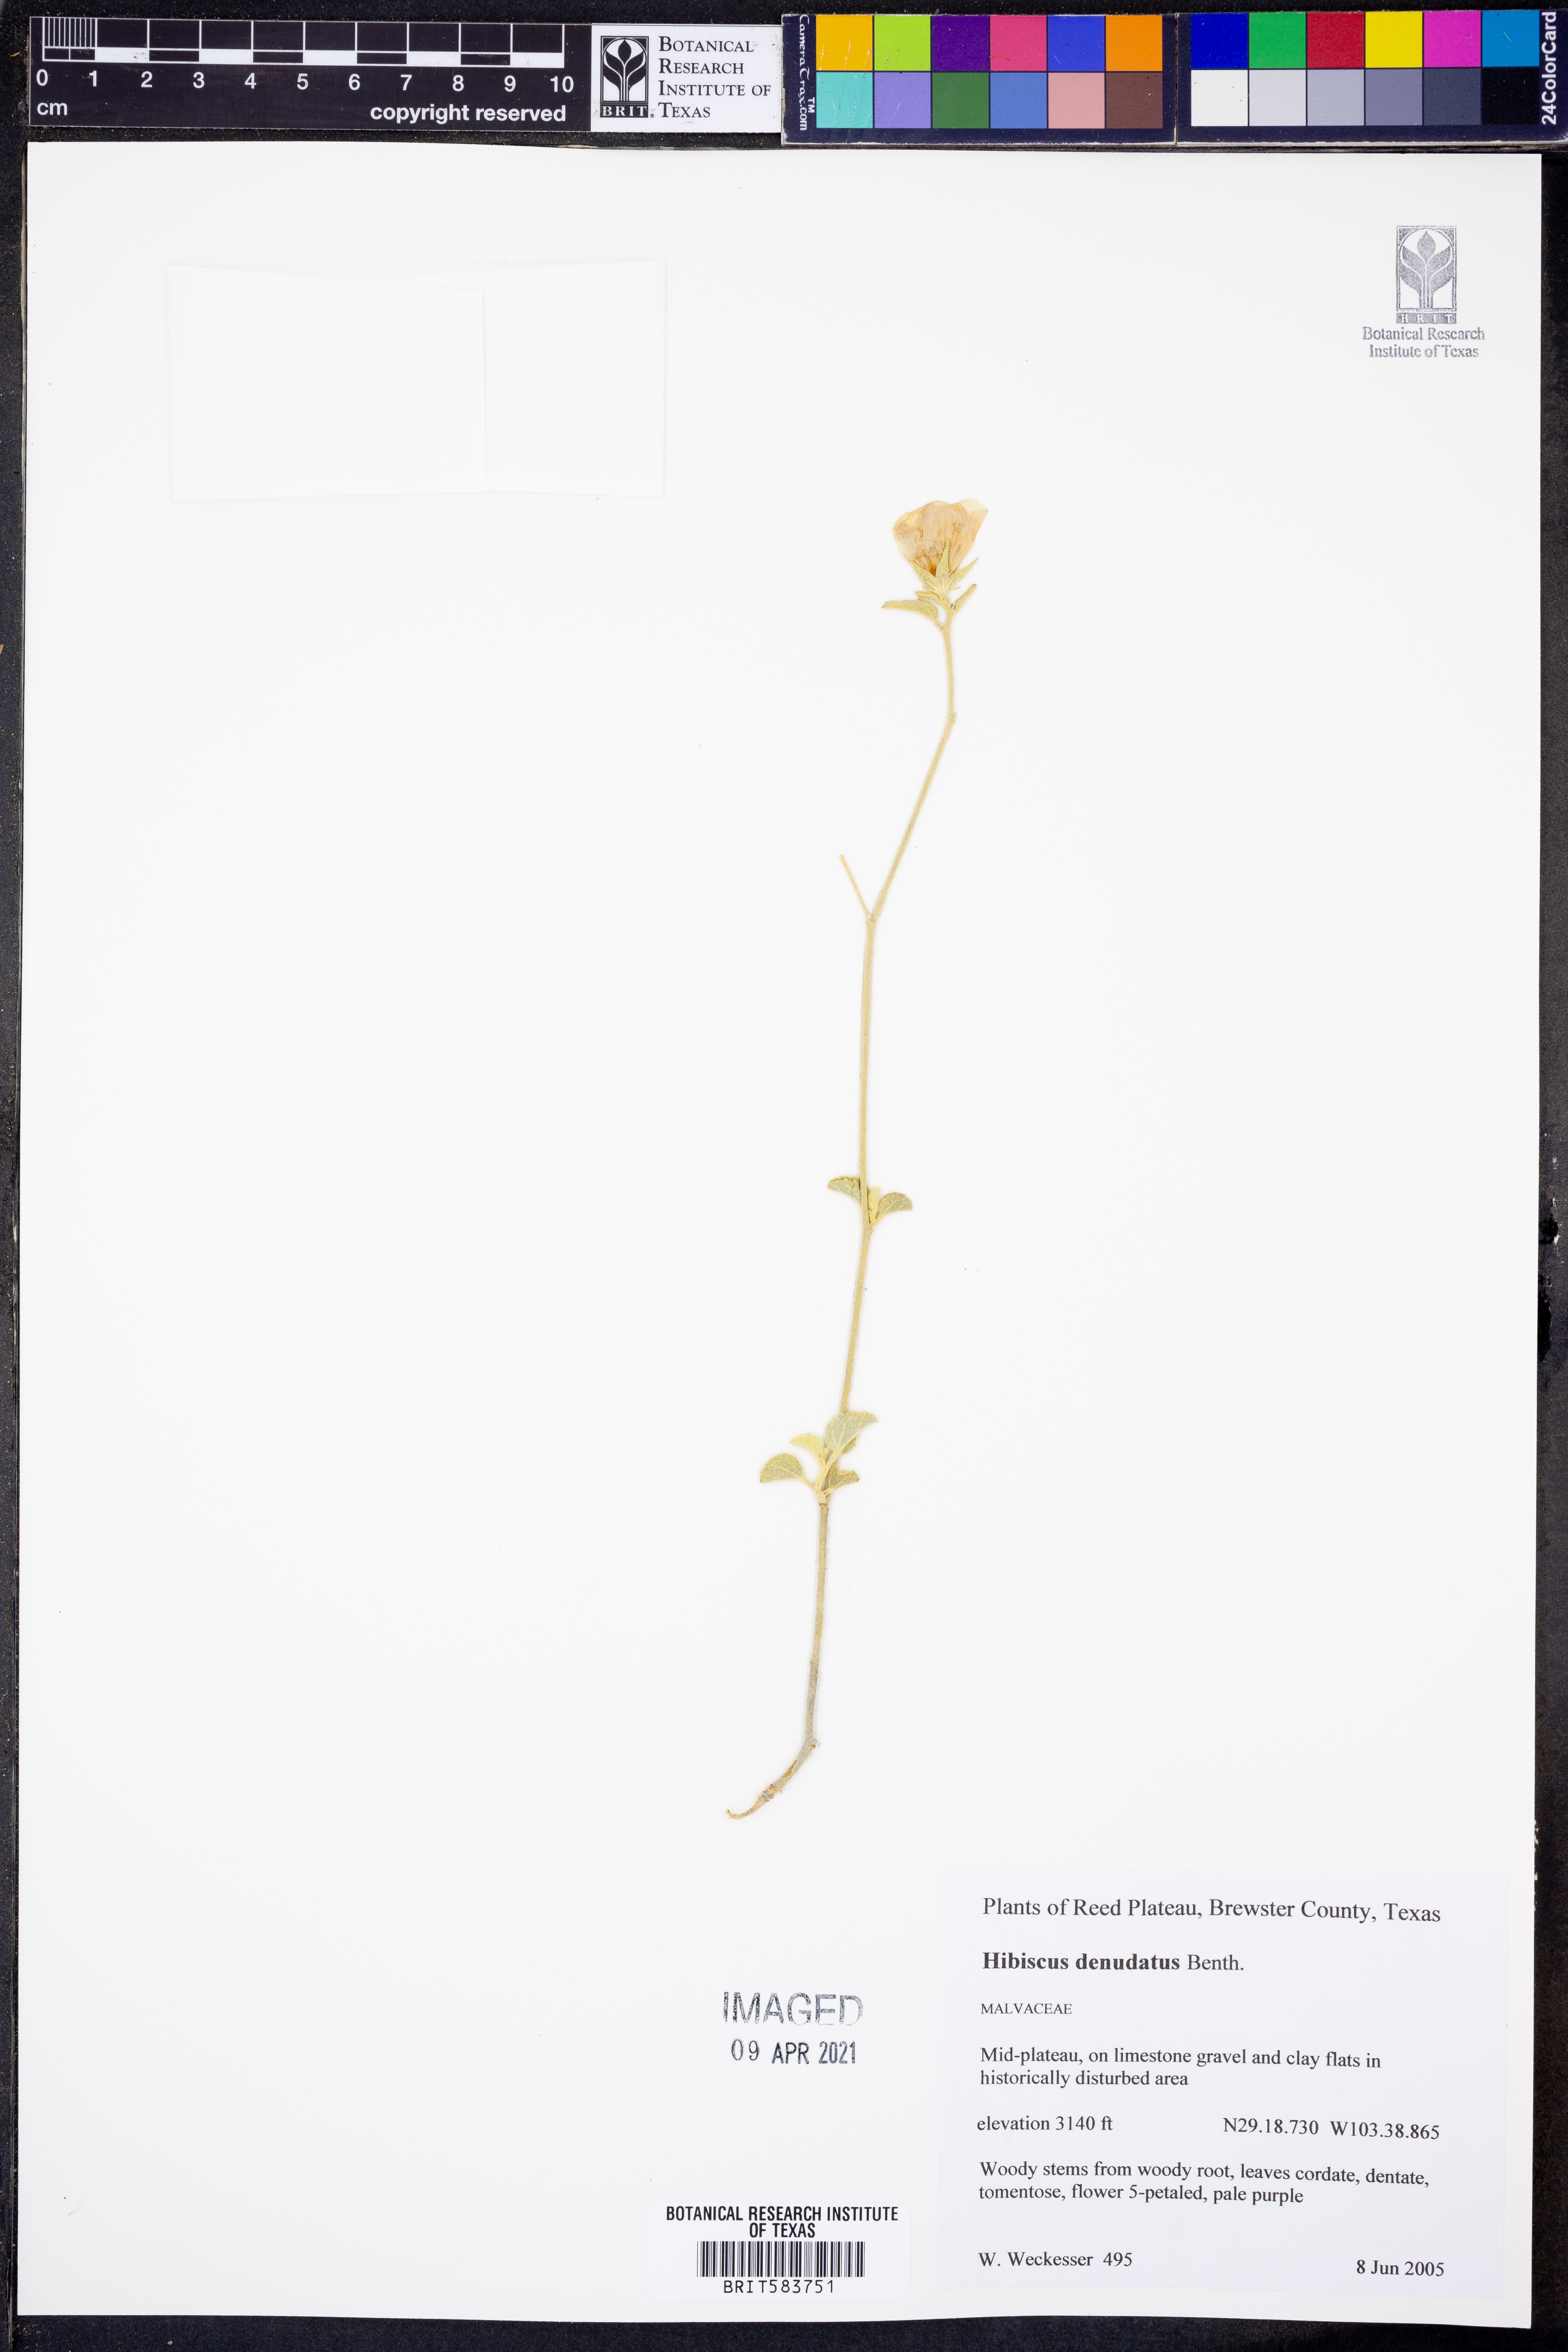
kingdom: Plantae
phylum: Tracheophyta
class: Magnoliopsida
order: Malvales
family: Malvaceae
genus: Hibiscus
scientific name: Hibiscus denudatus
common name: Paleface
